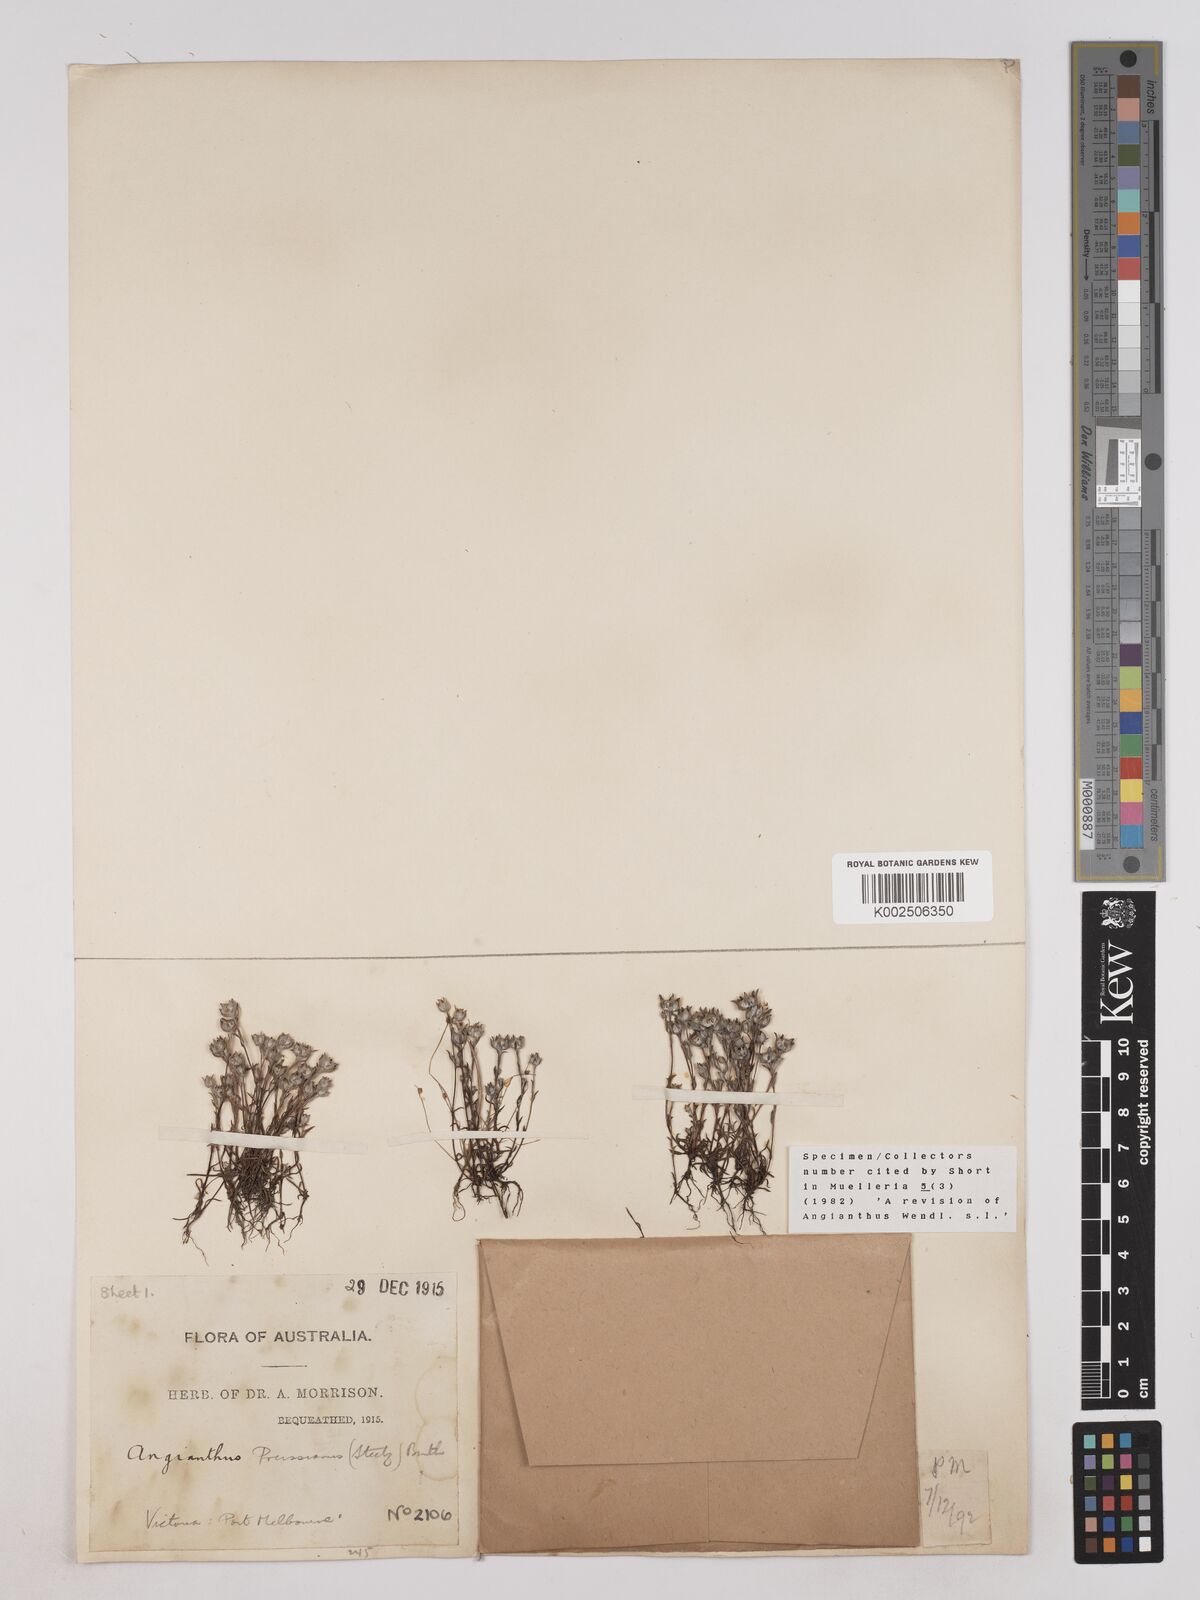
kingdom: Plantae
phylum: Tracheophyta
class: Magnoliopsida
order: Asterales
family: Asteraceae
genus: Angianthus
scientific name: Angianthus preissianus
